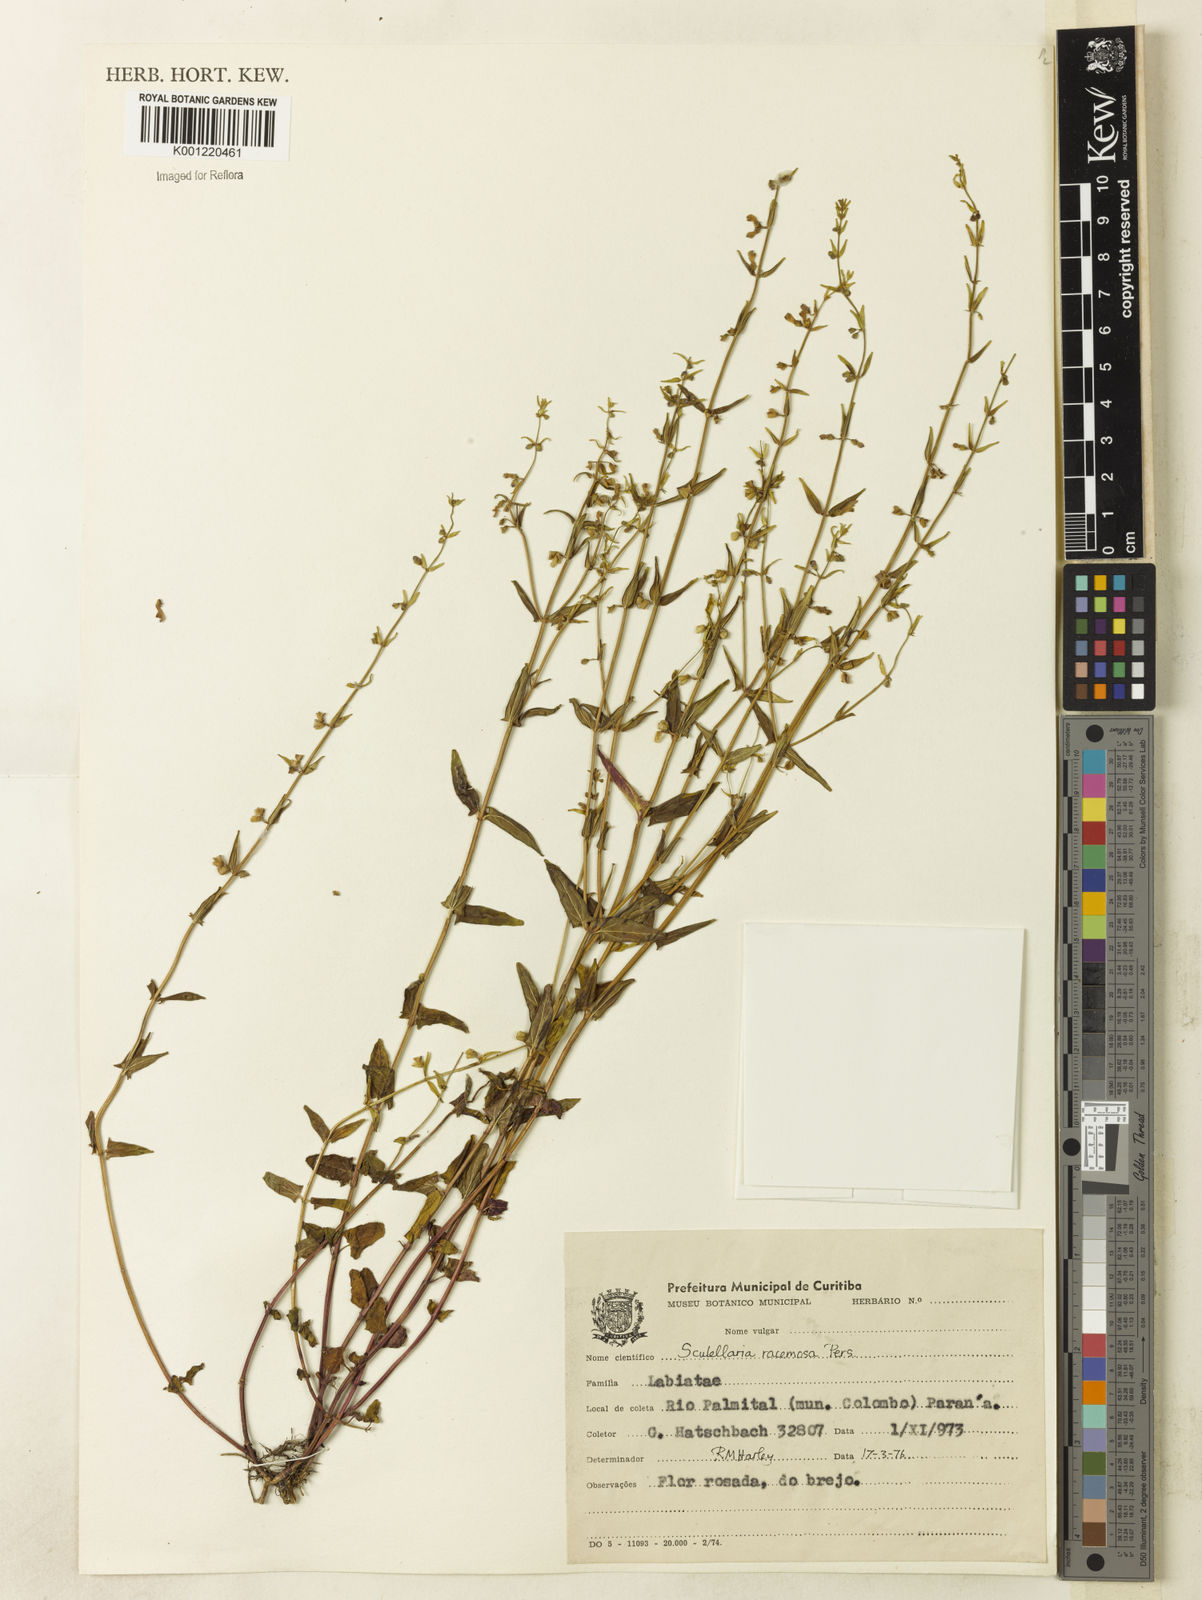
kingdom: Plantae
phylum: Tracheophyta
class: Magnoliopsida
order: Lamiales
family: Lamiaceae
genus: Scutellaria
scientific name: Scutellaria racemosa
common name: South american skullcap
